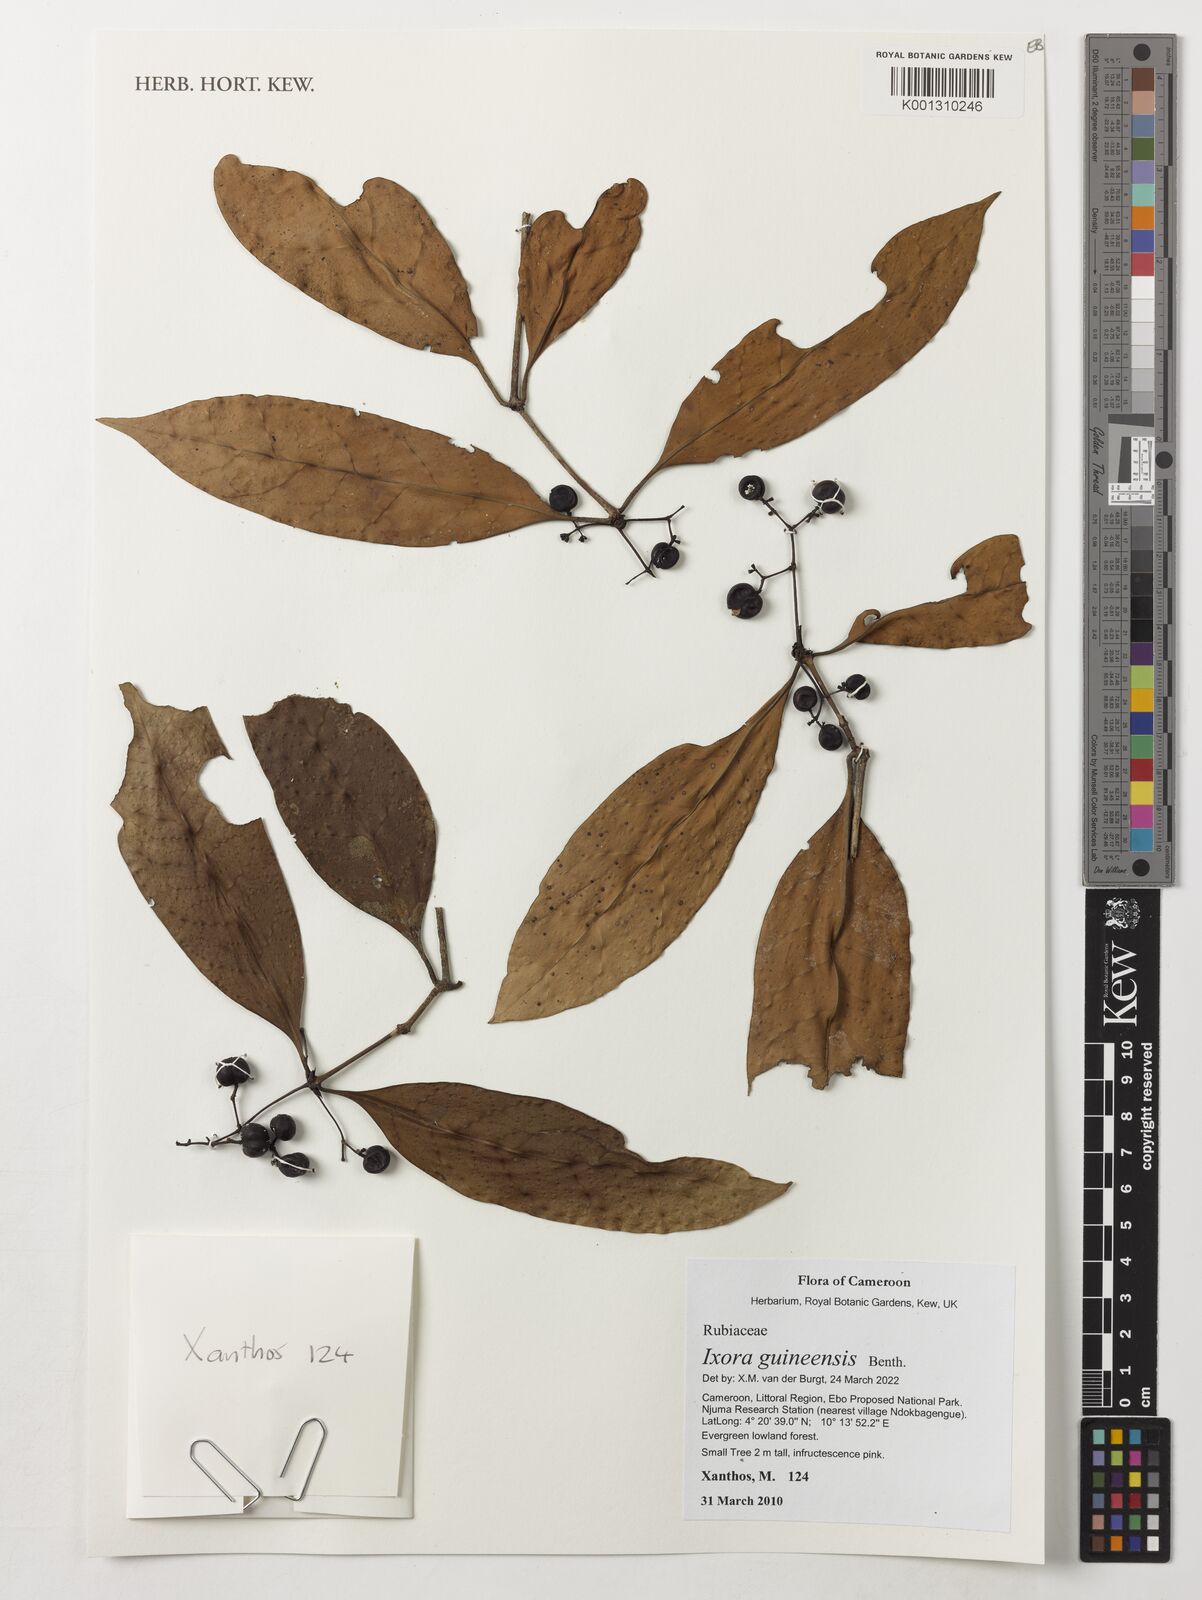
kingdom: Plantae
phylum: Tracheophyta
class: Magnoliopsida
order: Gentianales
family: Rubiaceae
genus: Faramea
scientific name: Faramea lourteigiana
